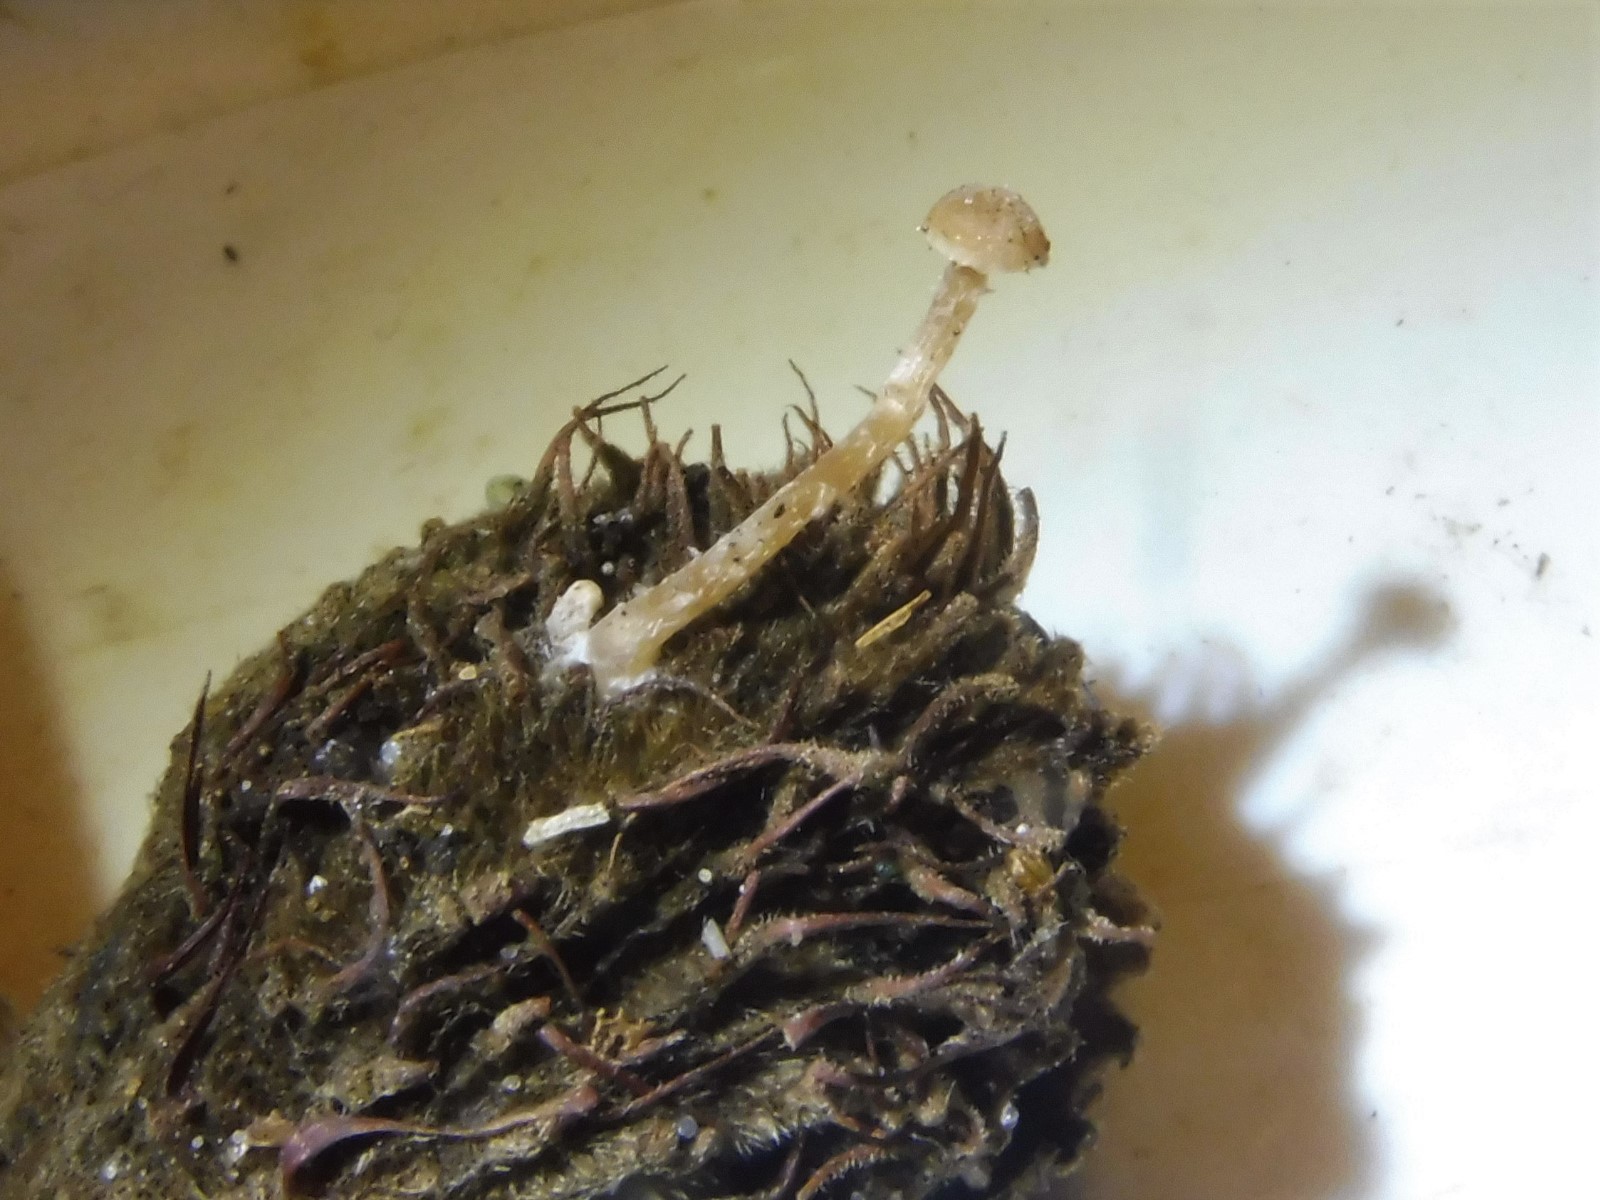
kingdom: Fungi
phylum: Basidiomycota
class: Agaricomycetes
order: Agaricales
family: Tubariaceae
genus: Flammulaster
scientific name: Flammulaster
